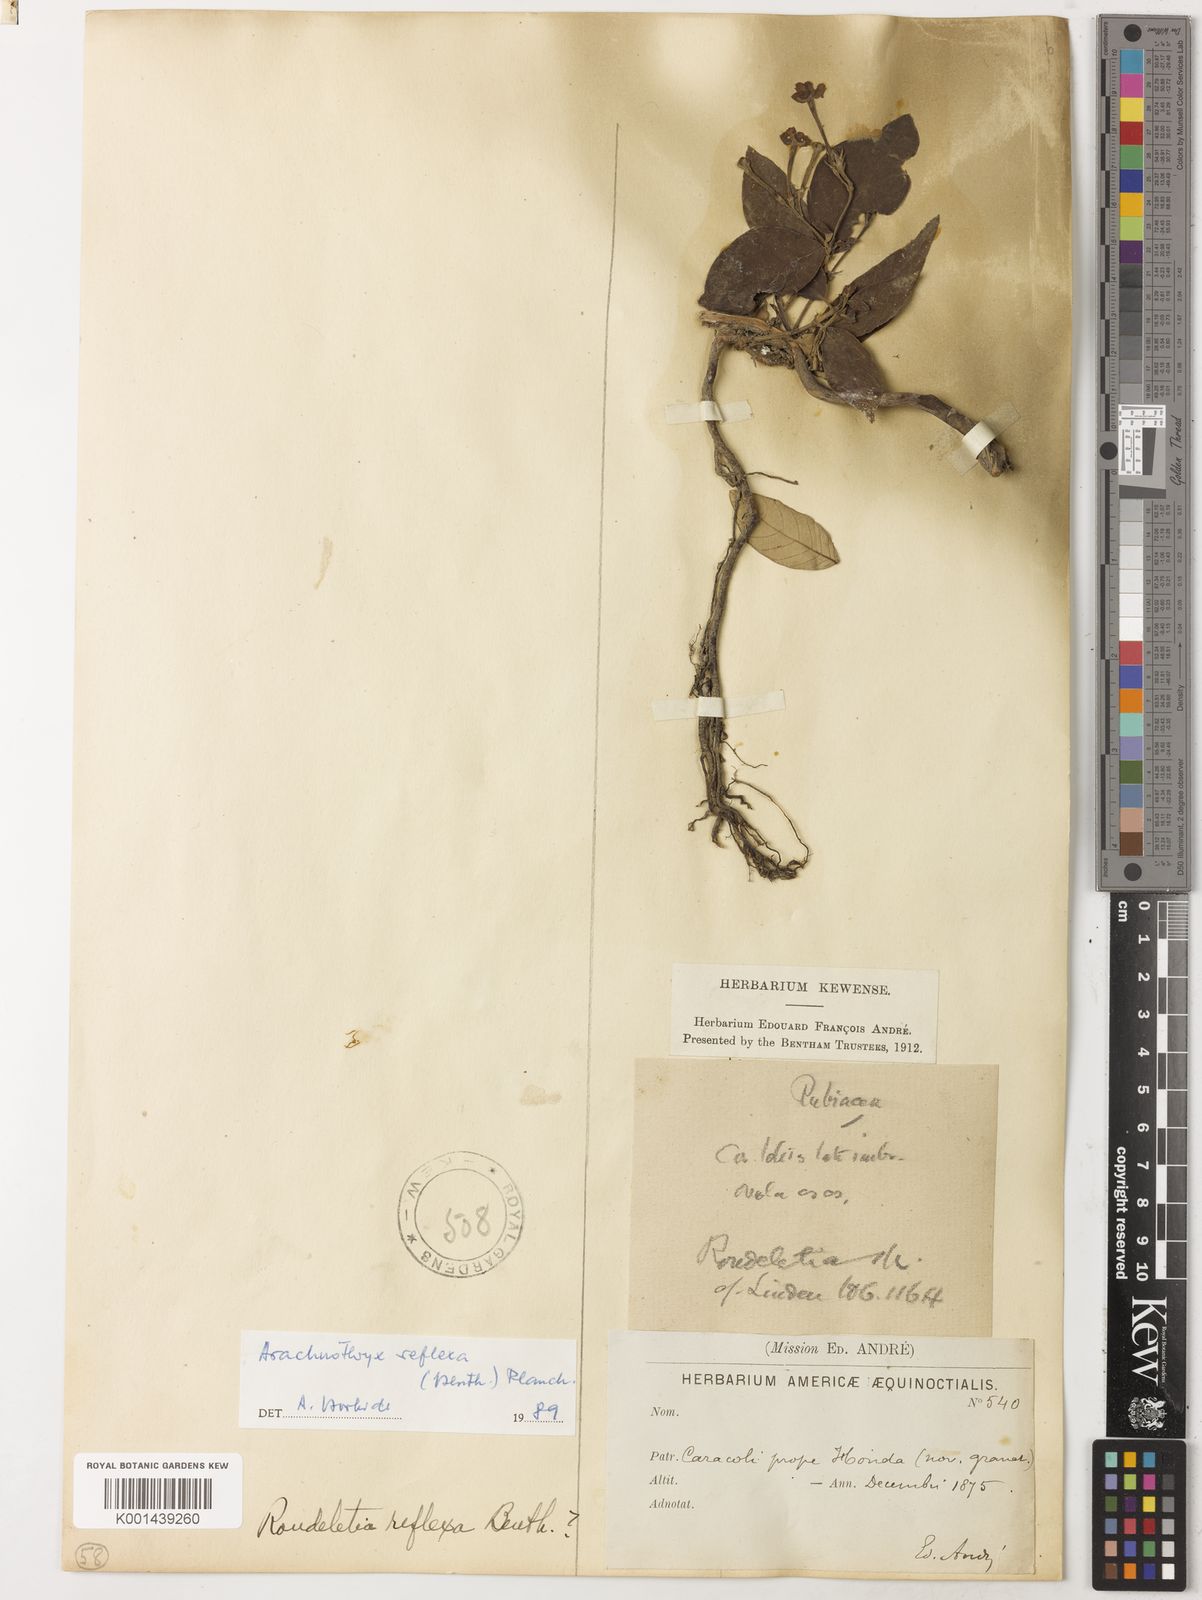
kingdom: Plantae
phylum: Tracheophyta
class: Magnoliopsida
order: Gentianales
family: Rubiaceae
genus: Arachnothryx
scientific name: Arachnothryx cupreiflora
